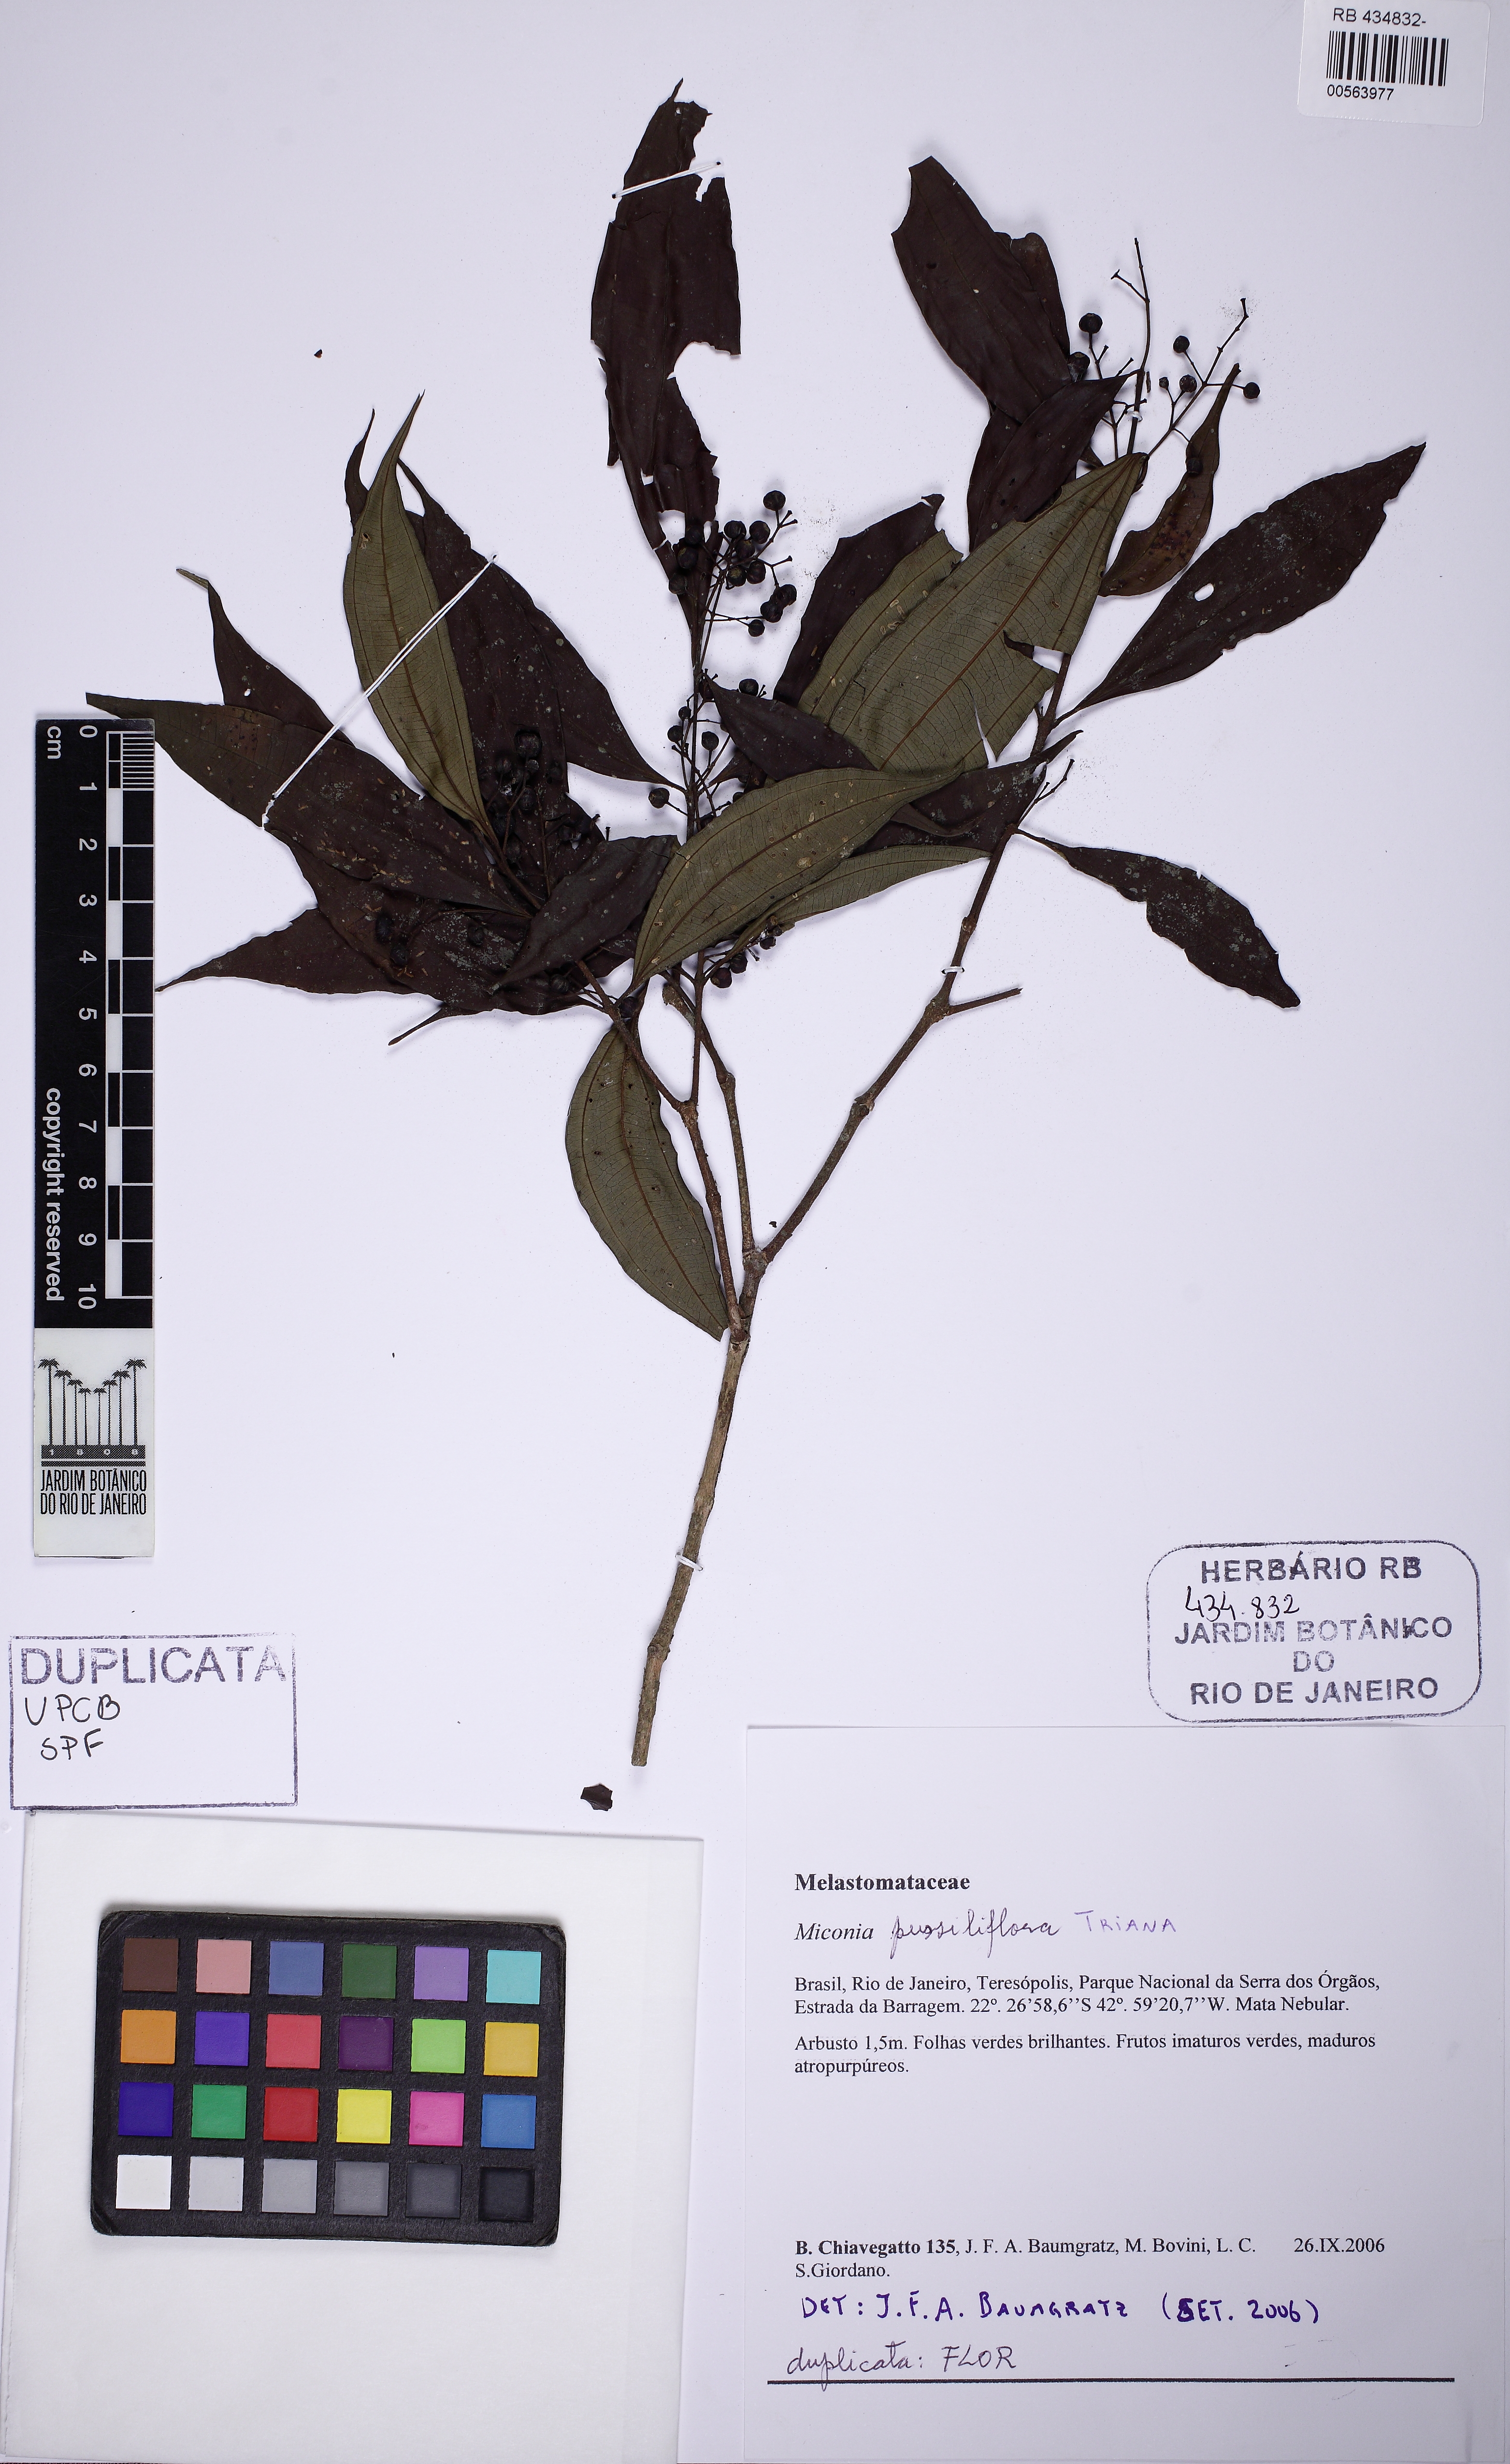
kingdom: Plantae
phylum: Tracheophyta
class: Magnoliopsida
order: Myrtales
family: Melastomataceae
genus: Miconia
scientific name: Miconia pusilliflora
